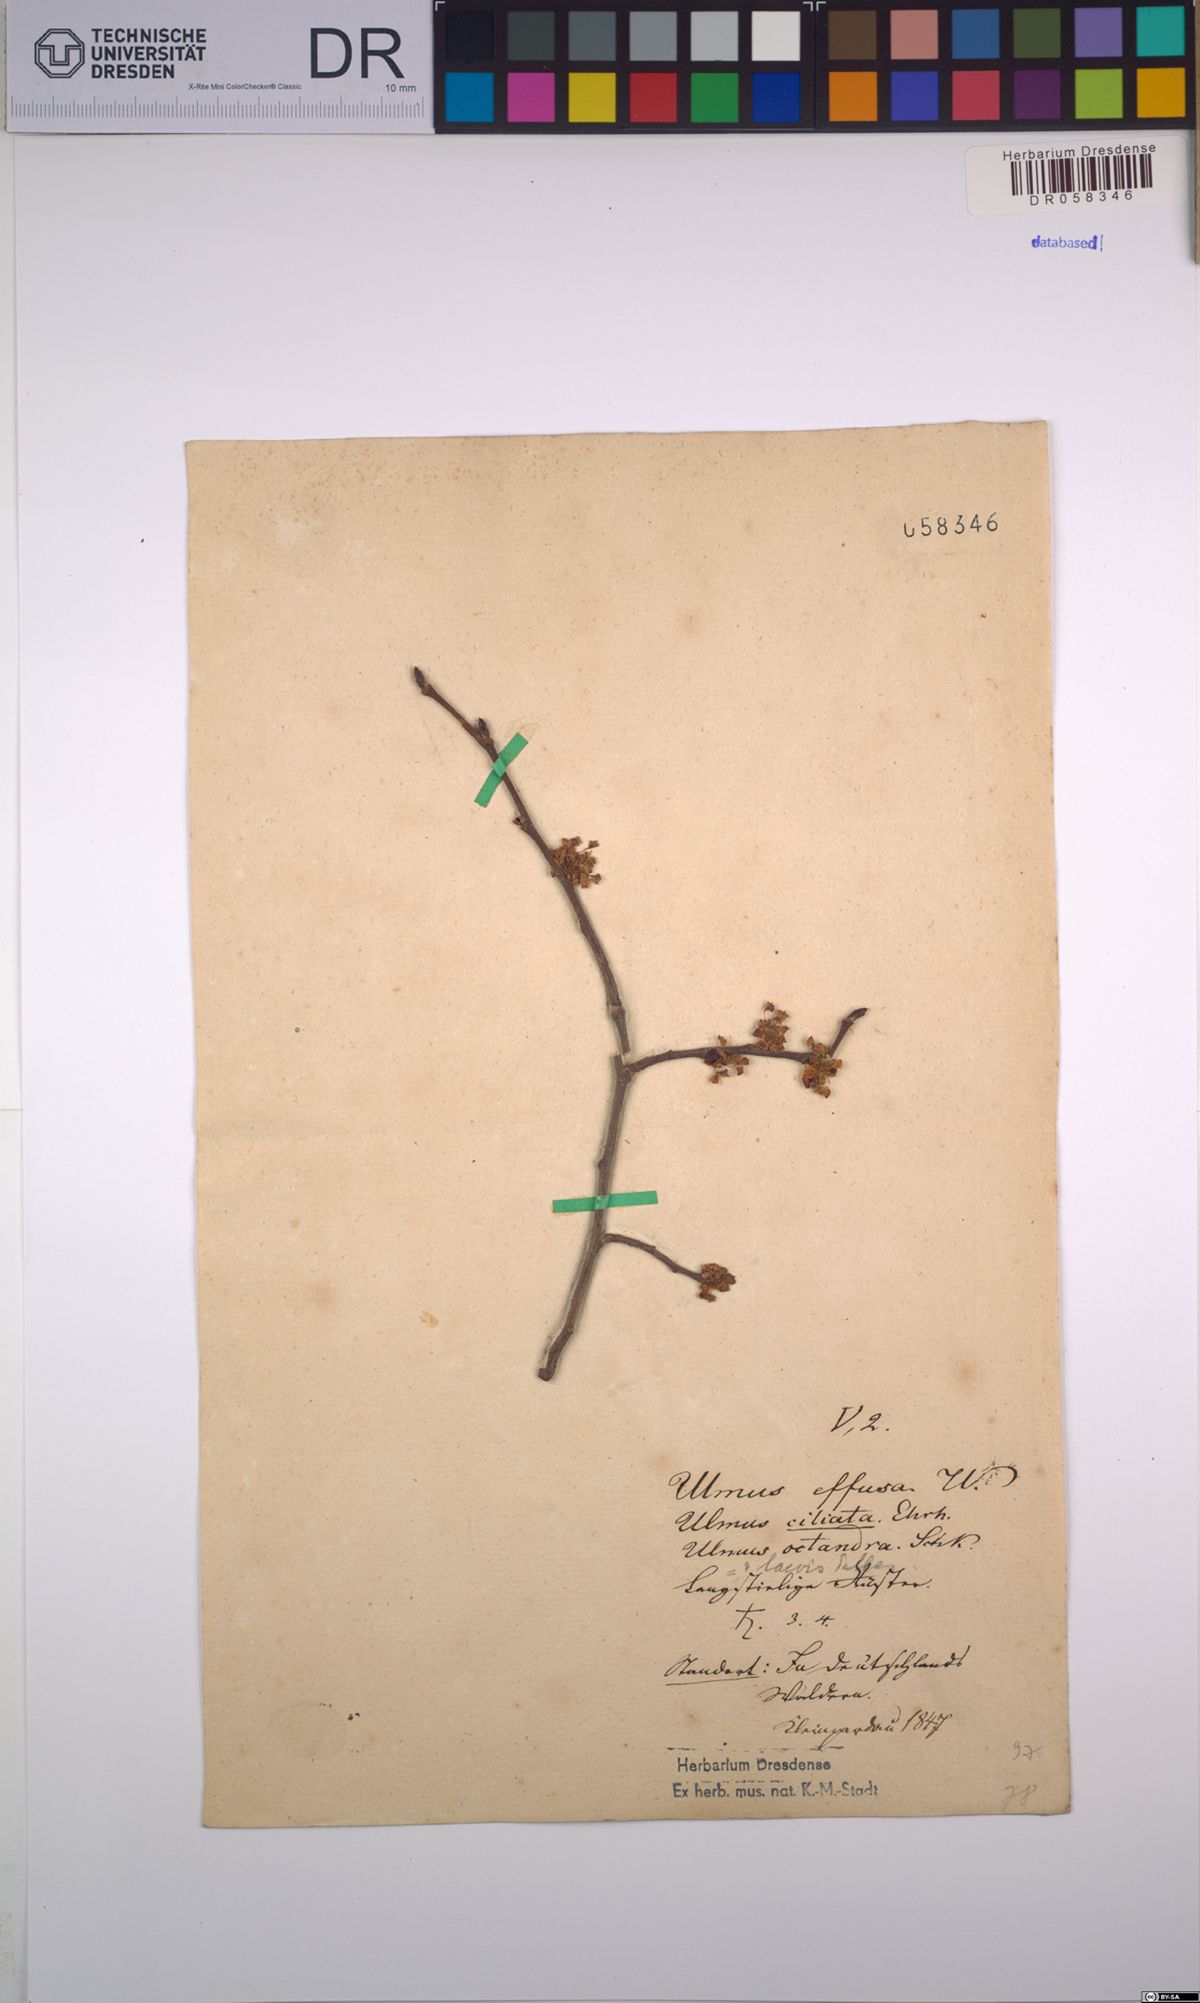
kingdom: Plantae
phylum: Tracheophyta
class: Magnoliopsida
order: Rosales
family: Ulmaceae
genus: Ulmus
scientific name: Ulmus laevis
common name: European white-elm
